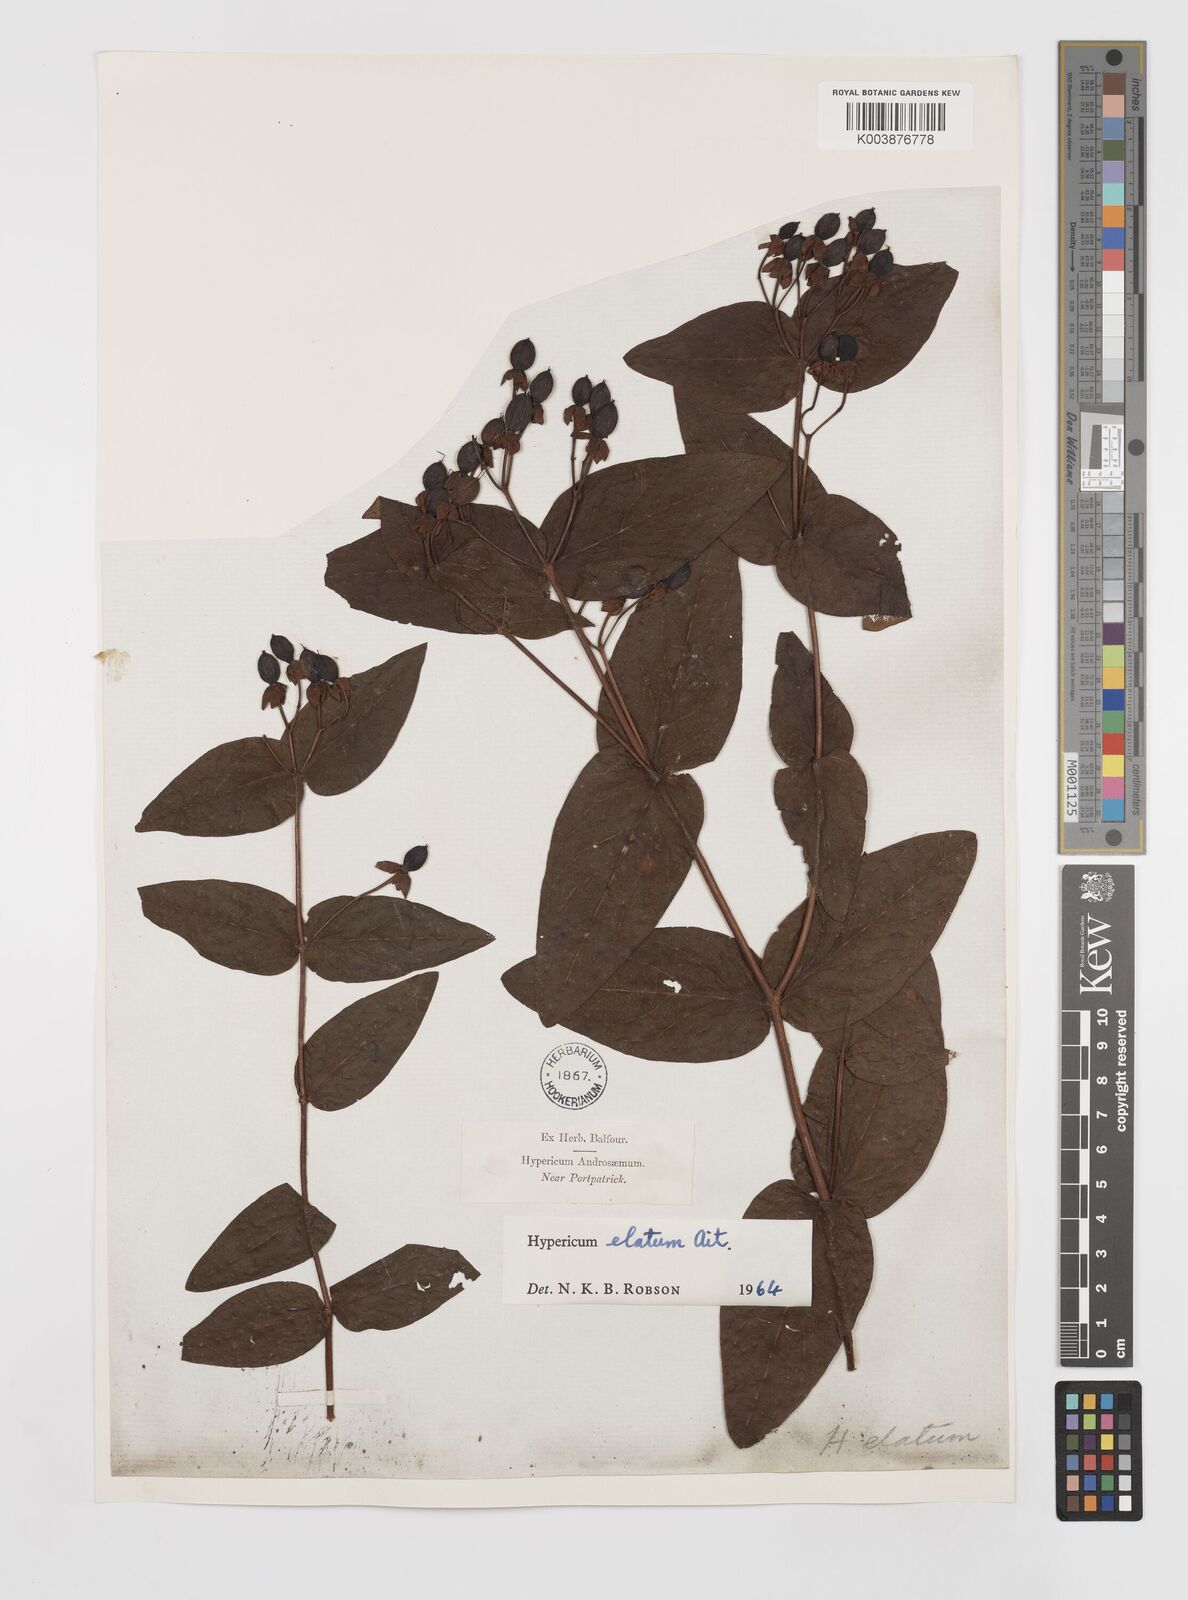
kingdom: Plantae
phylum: Tracheophyta
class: Magnoliopsida
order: Malpighiales
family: Hypericaceae
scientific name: Hypericaceae
